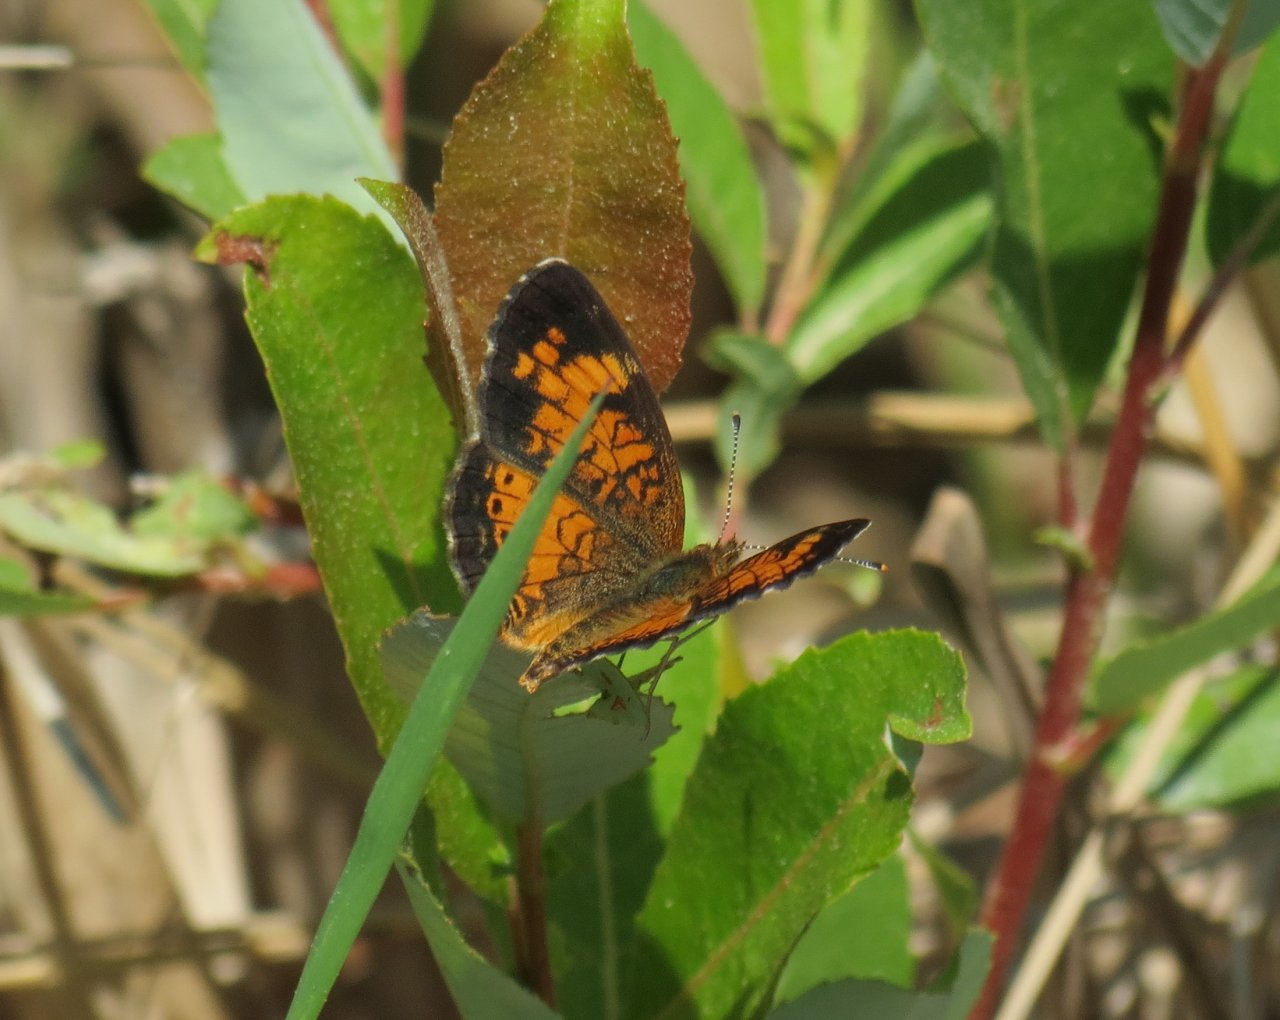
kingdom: Animalia
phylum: Arthropoda
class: Insecta
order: Lepidoptera
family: Nymphalidae
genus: Phyciodes
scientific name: Phyciodes tharos
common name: Northern Crescent
